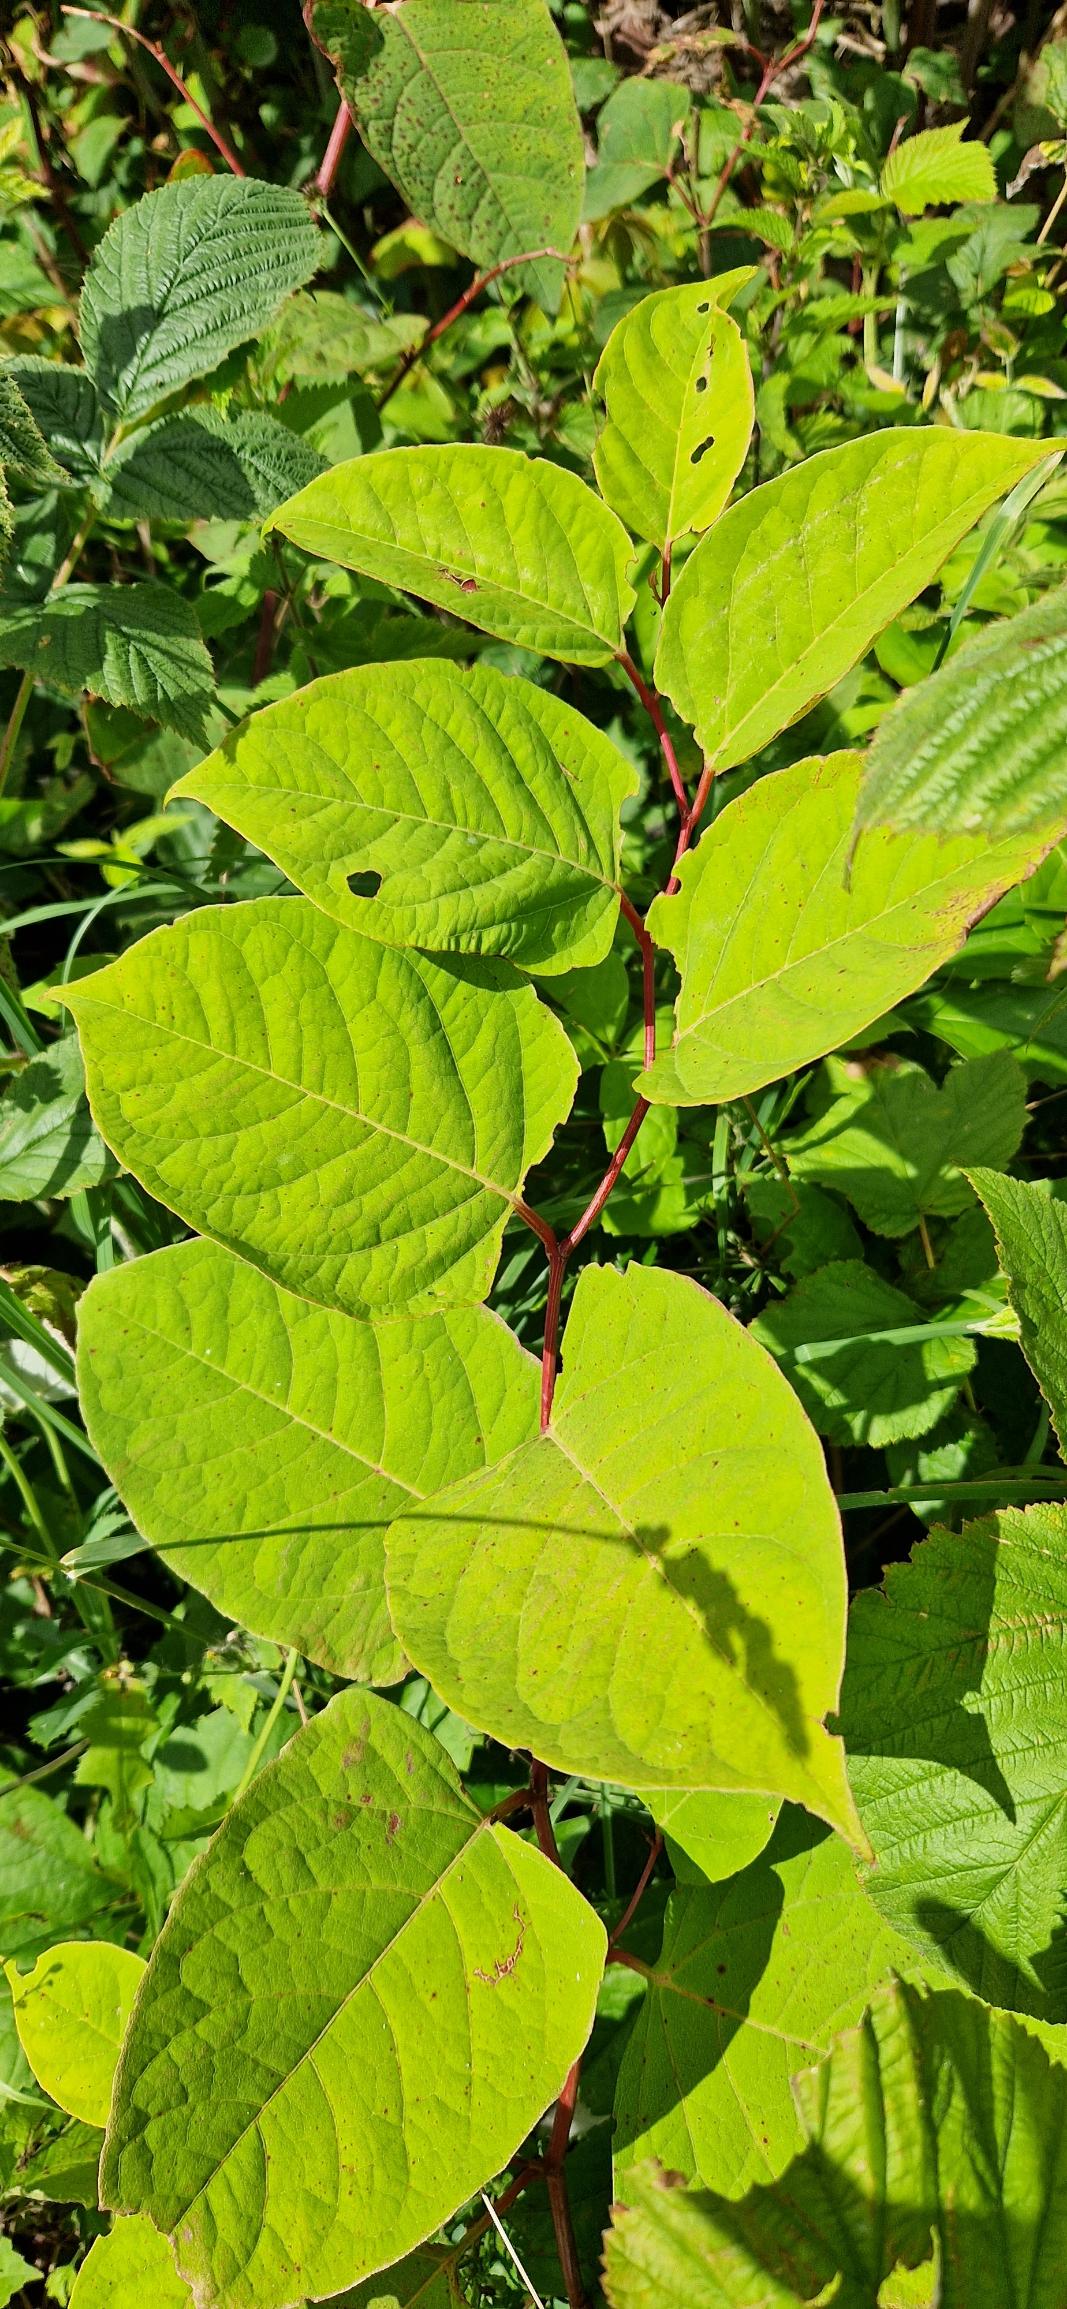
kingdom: Plantae
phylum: Tracheophyta
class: Magnoliopsida
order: Caryophyllales
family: Polygonaceae
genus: Reynoutria
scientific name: Reynoutria japonica
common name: Japan-pileurt
